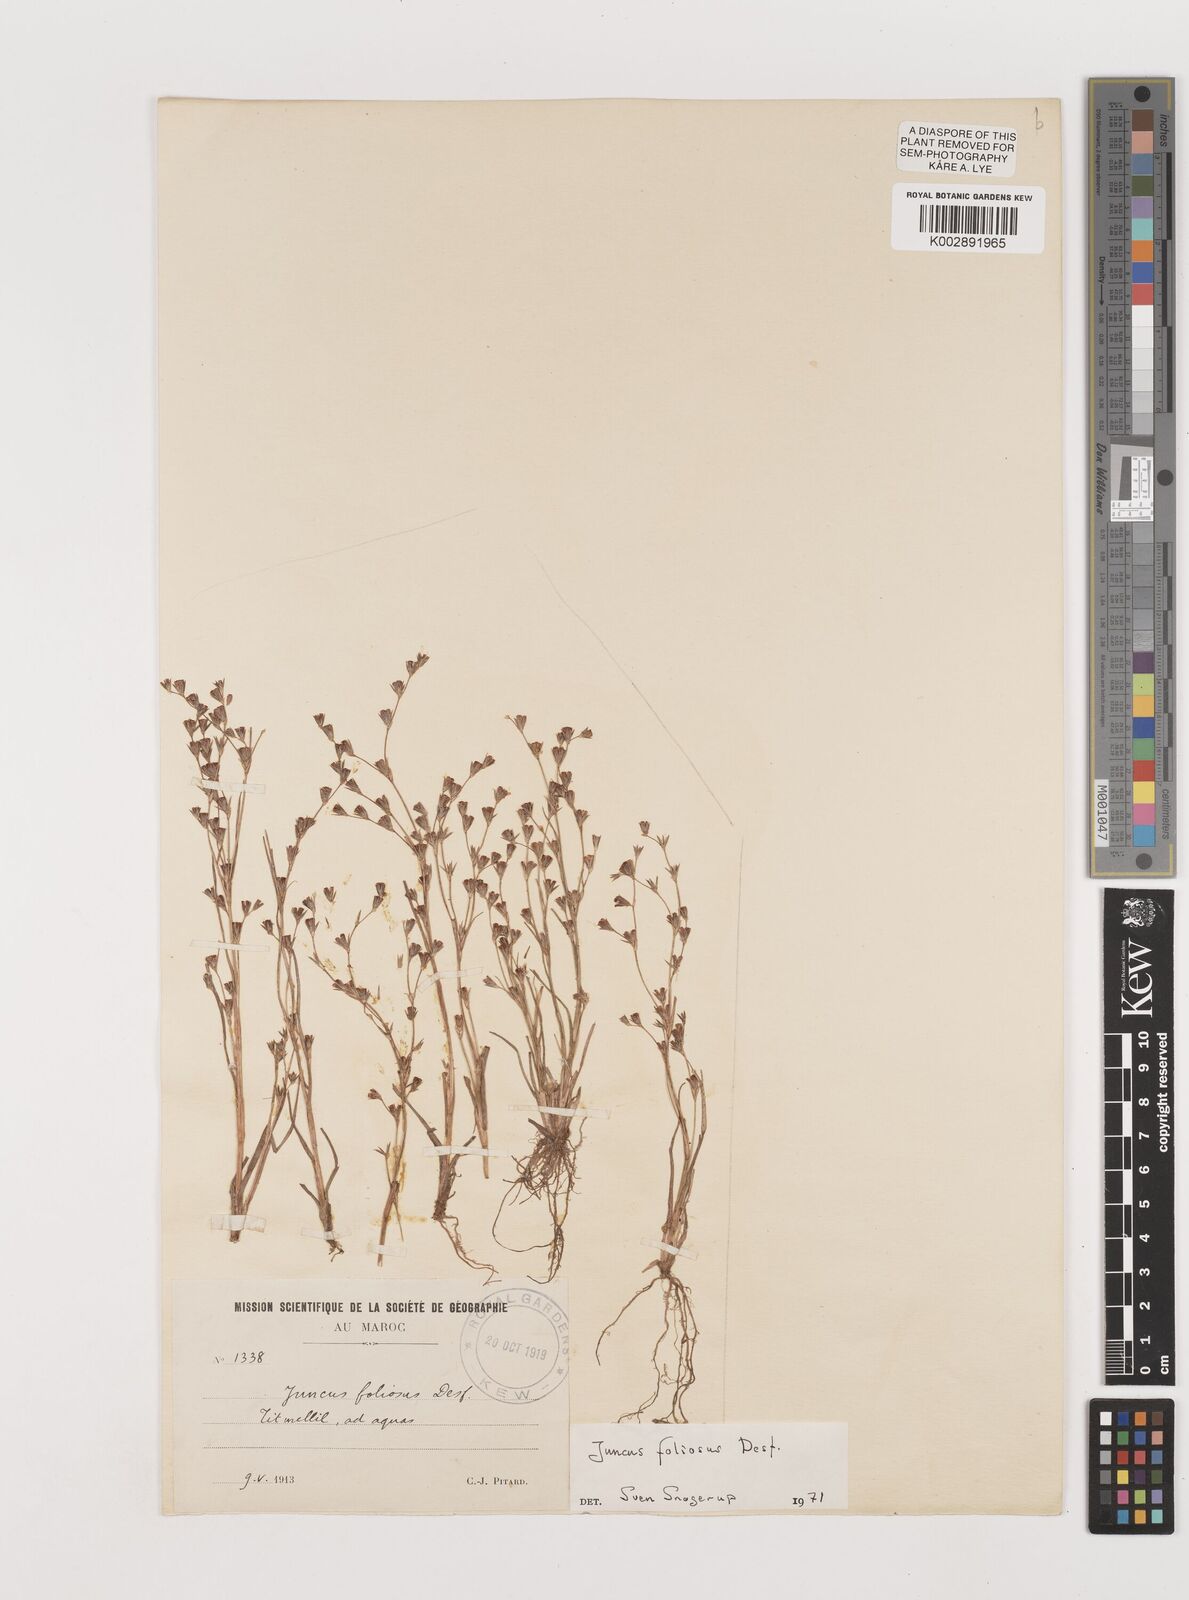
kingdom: Plantae
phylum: Tracheophyta
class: Liliopsida
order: Poales
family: Juncaceae
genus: Juncus
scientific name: Juncus acutiflorus
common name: Sharp-flowered rush
